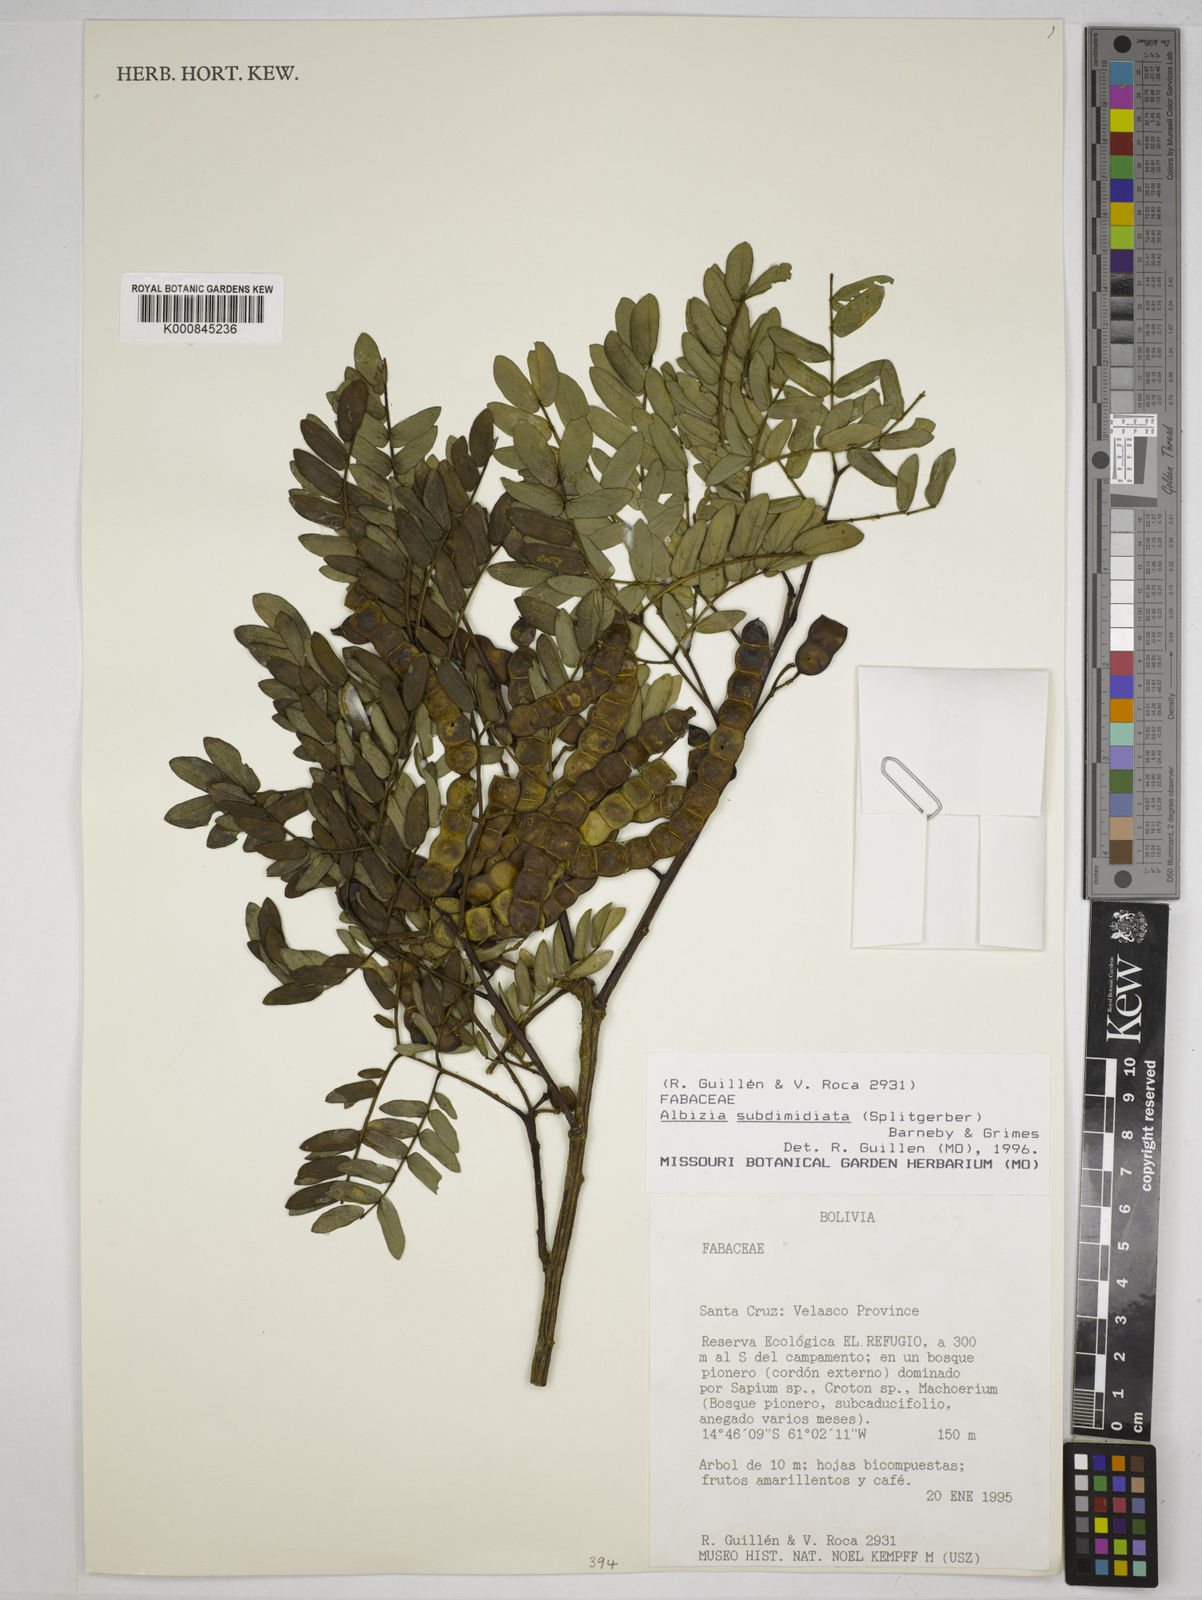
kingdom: Plantae
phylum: Tracheophyta
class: Magnoliopsida
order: Fabales
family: Fabaceae
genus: Albizia
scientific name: Albizia subdimidiata
